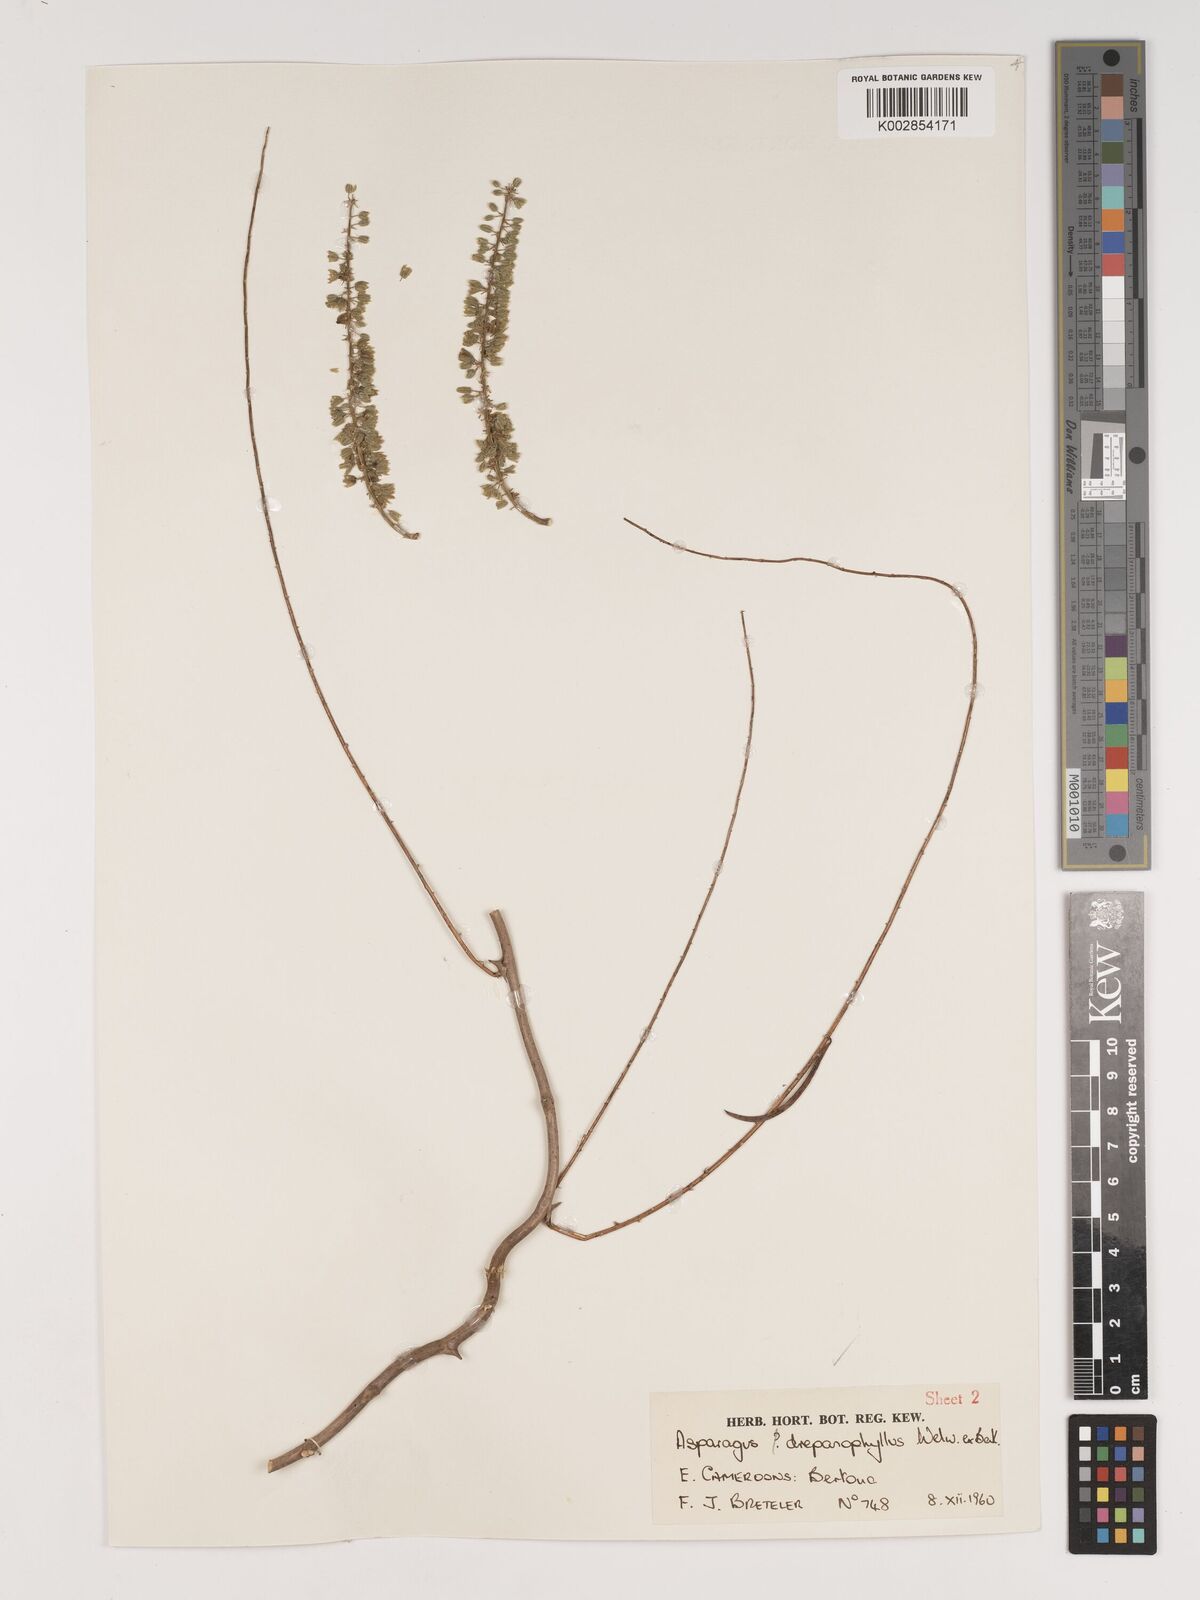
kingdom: Plantae
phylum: Tracheophyta
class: Liliopsida
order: Asparagales
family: Asparagaceae
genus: Asparagus
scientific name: Asparagus drepanophyllus
